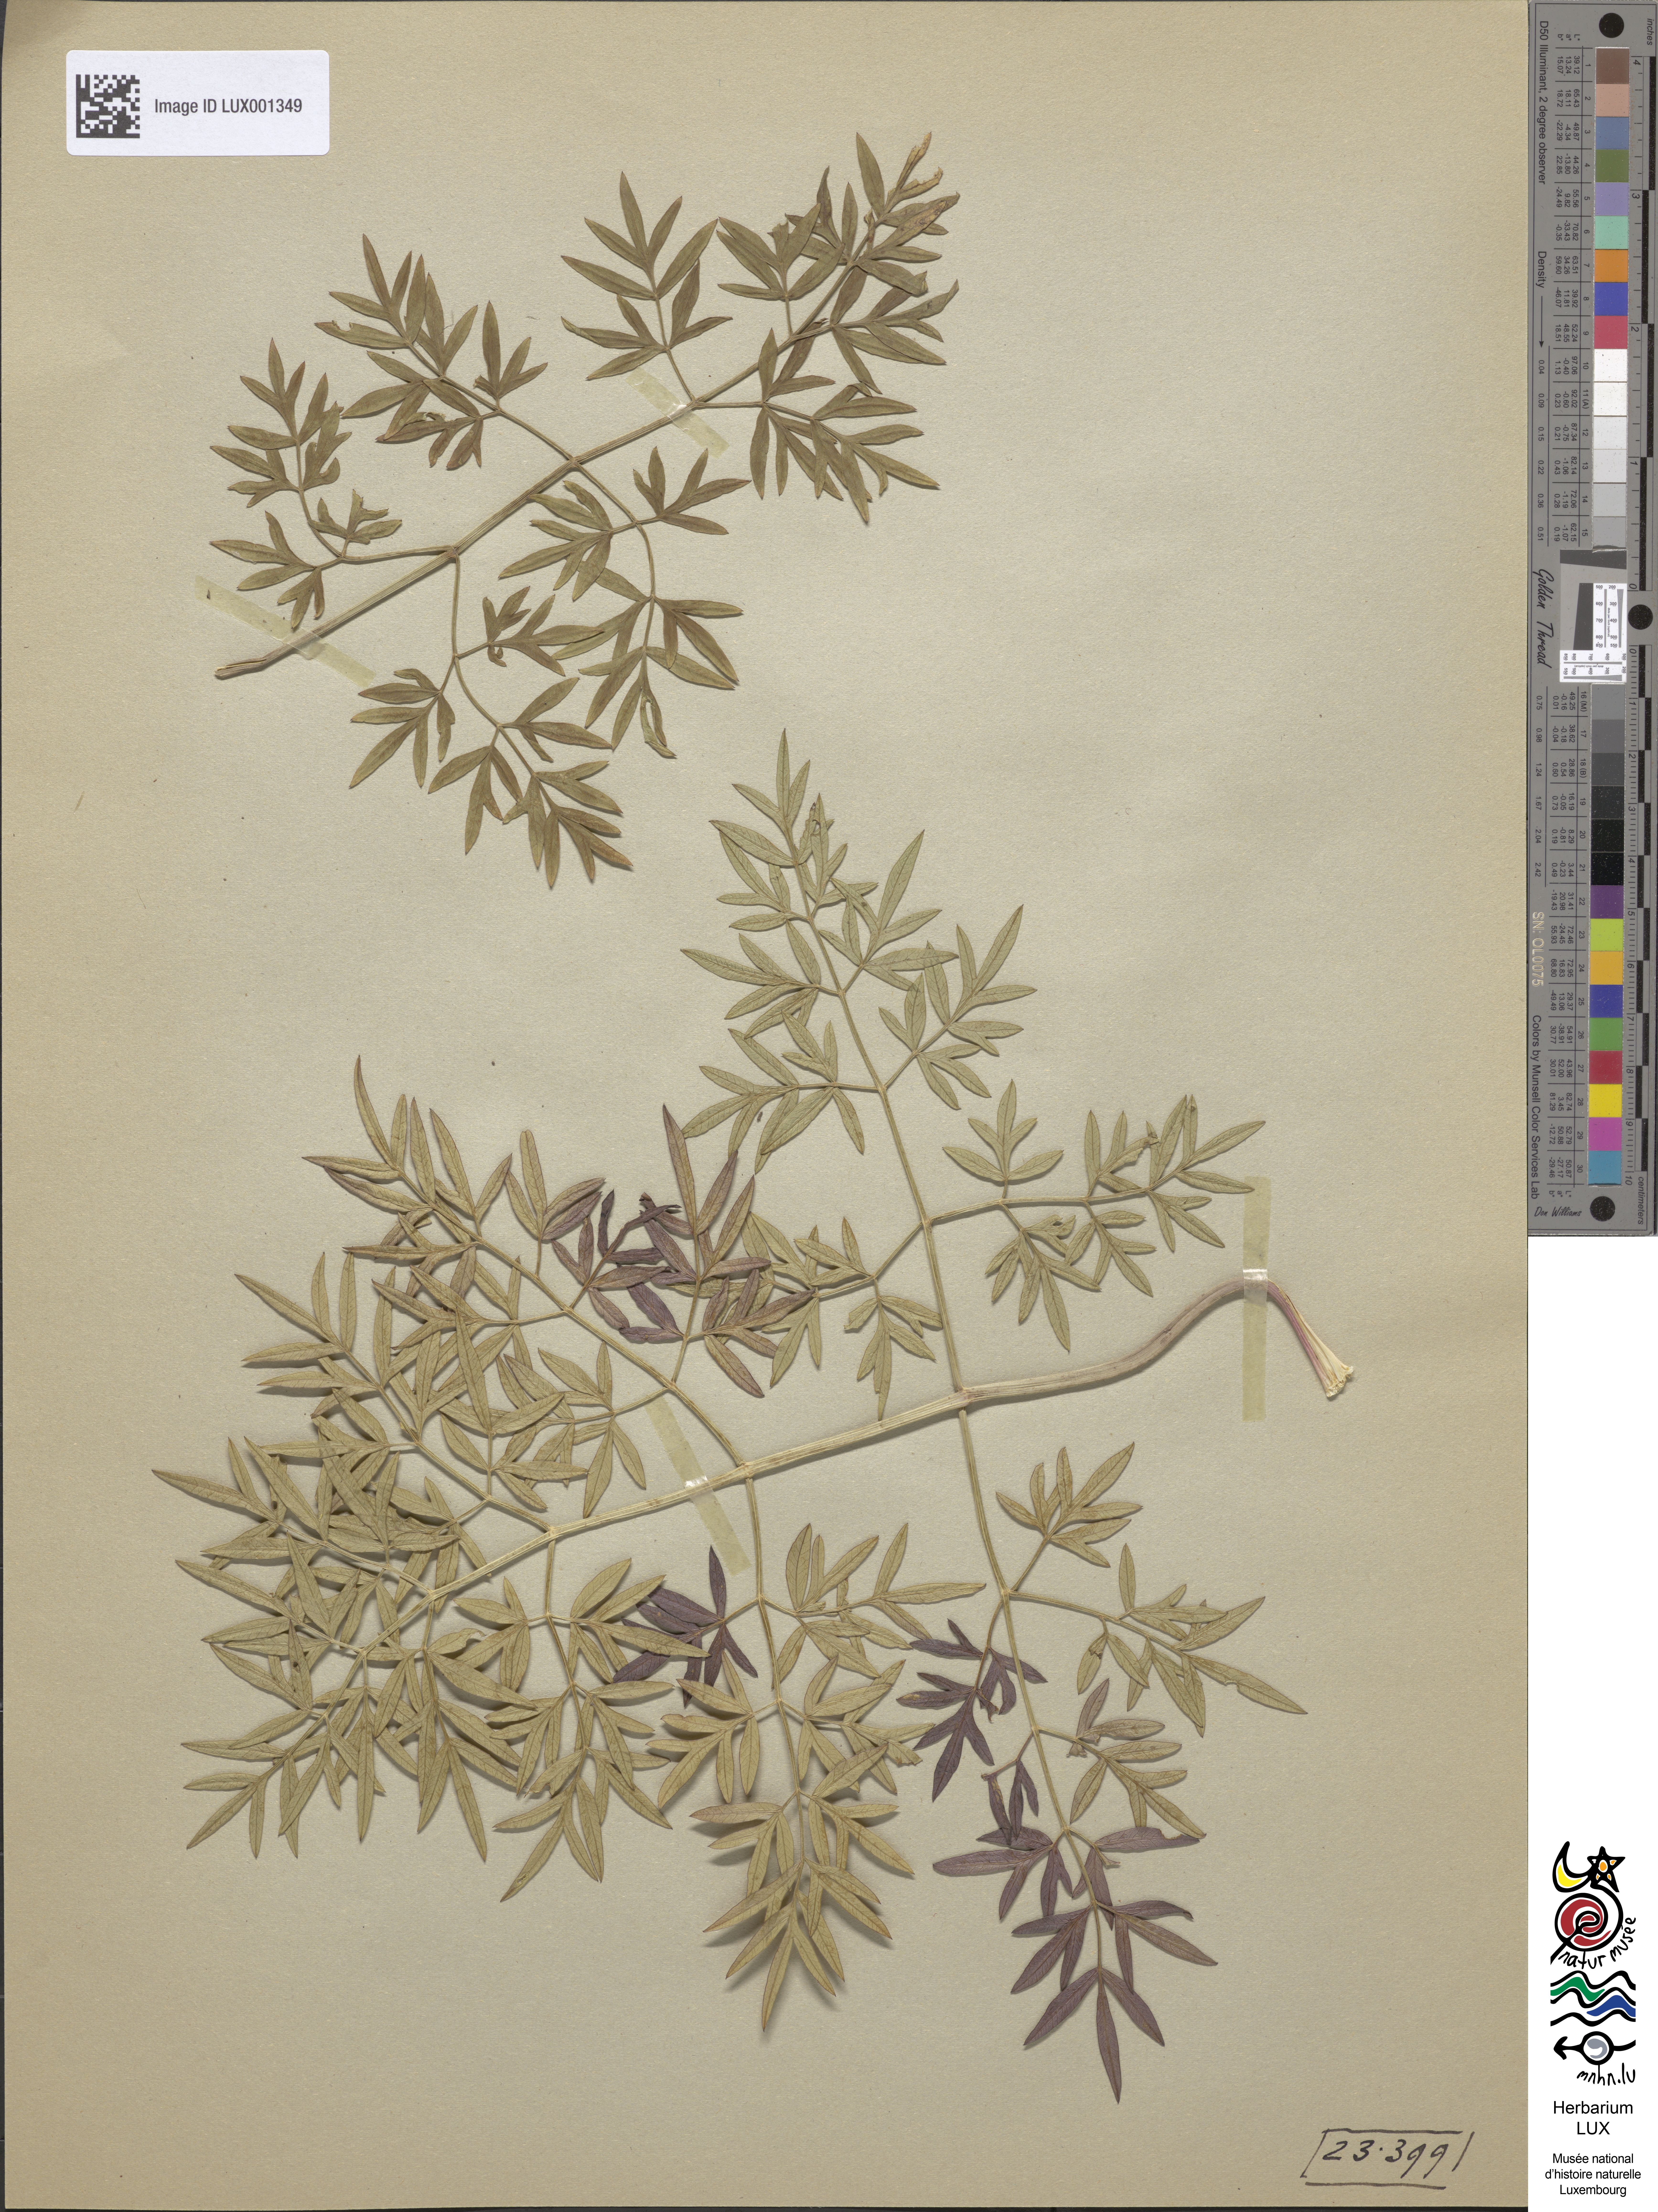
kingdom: Plantae
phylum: Tracheophyta
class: Magnoliopsida
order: Apiales
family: Apiaceae
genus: Silaum
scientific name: Silaum silaus
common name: Pepper-saxifrage
